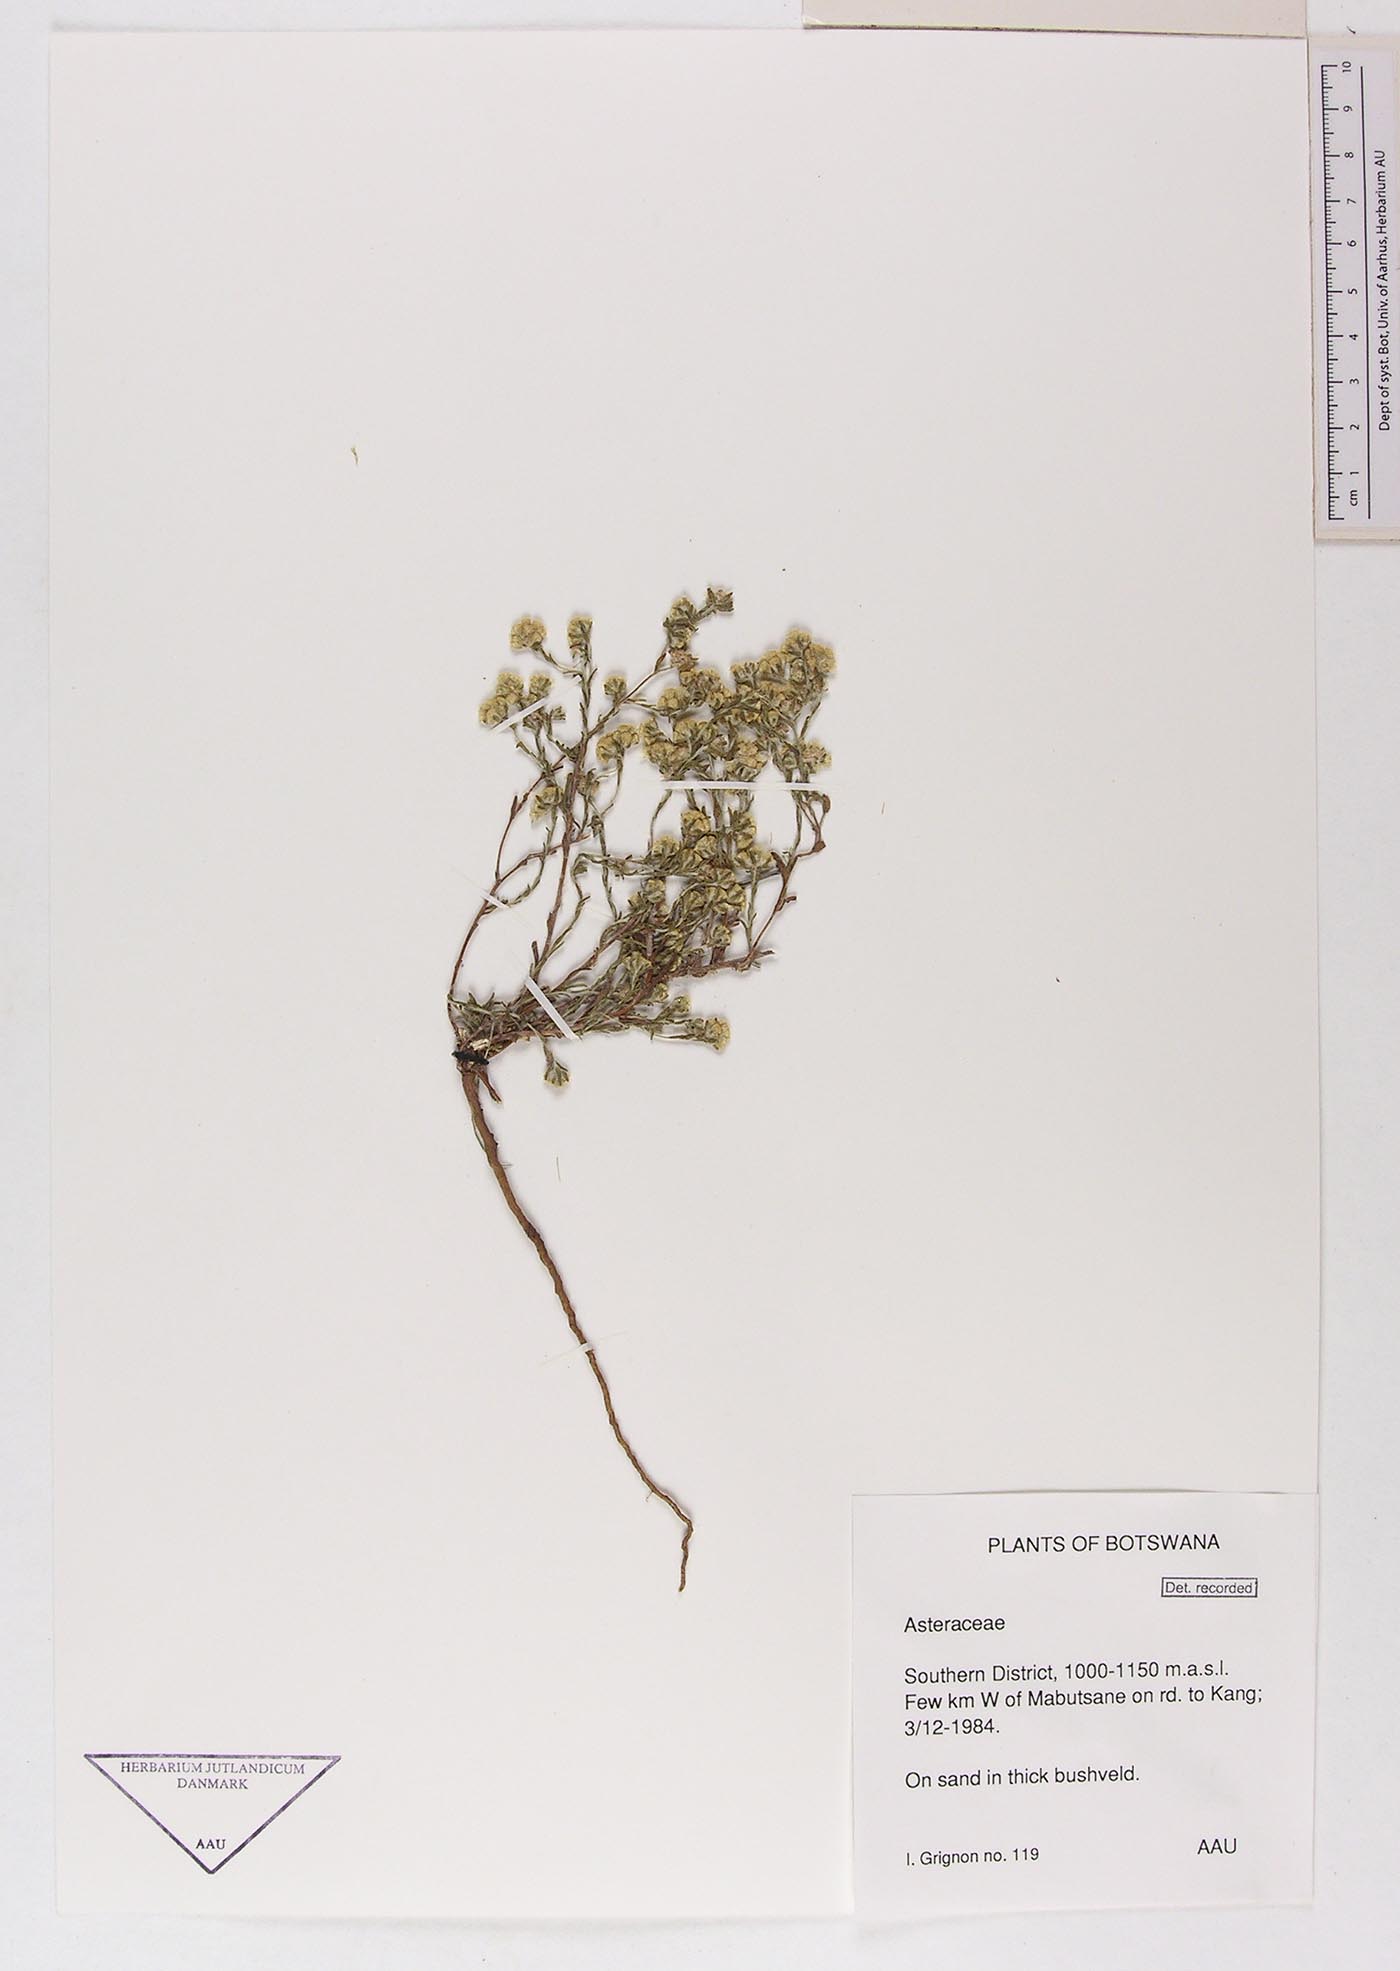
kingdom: Plantae
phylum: Tracheophyta
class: Magnoliopsida
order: Asterales
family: Asteraceae
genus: Helichrysum
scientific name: Helichrysum obductum
